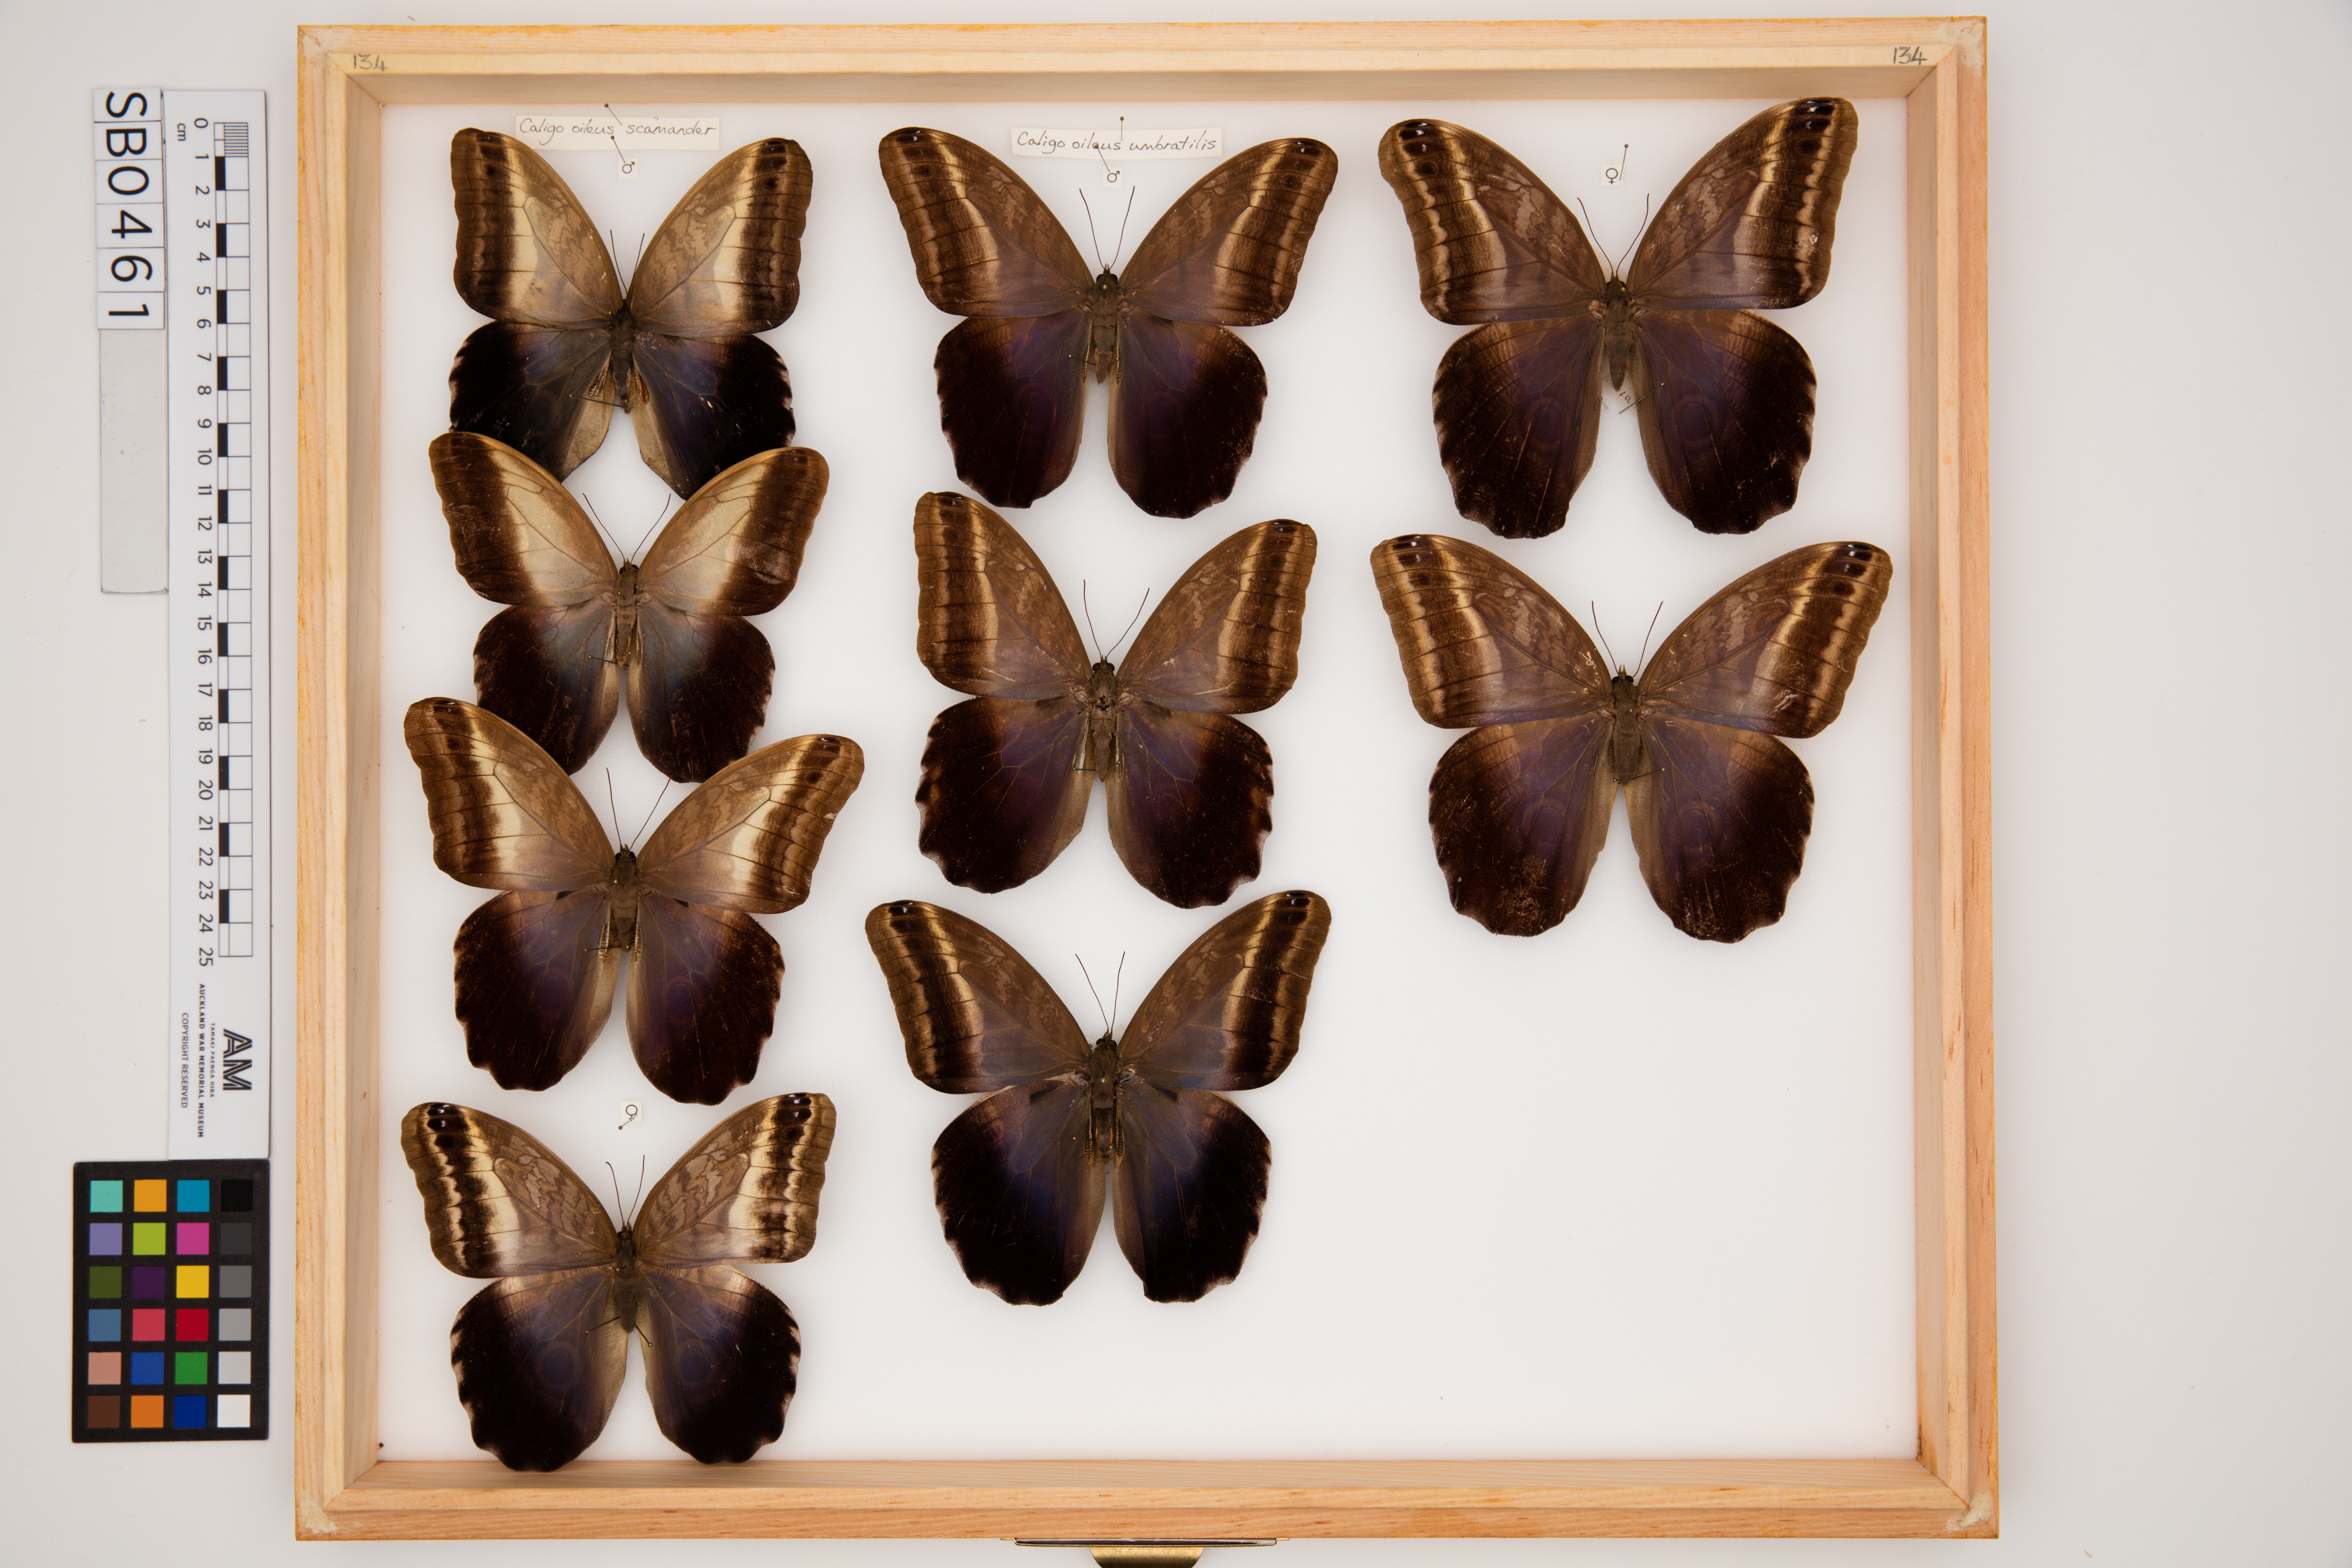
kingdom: Animalia
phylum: Arthropoda
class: Insecta
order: Lepidoptera
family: Nymphalidae
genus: Caligo
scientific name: Caligo oileus
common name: Oileus owl-butterfly
